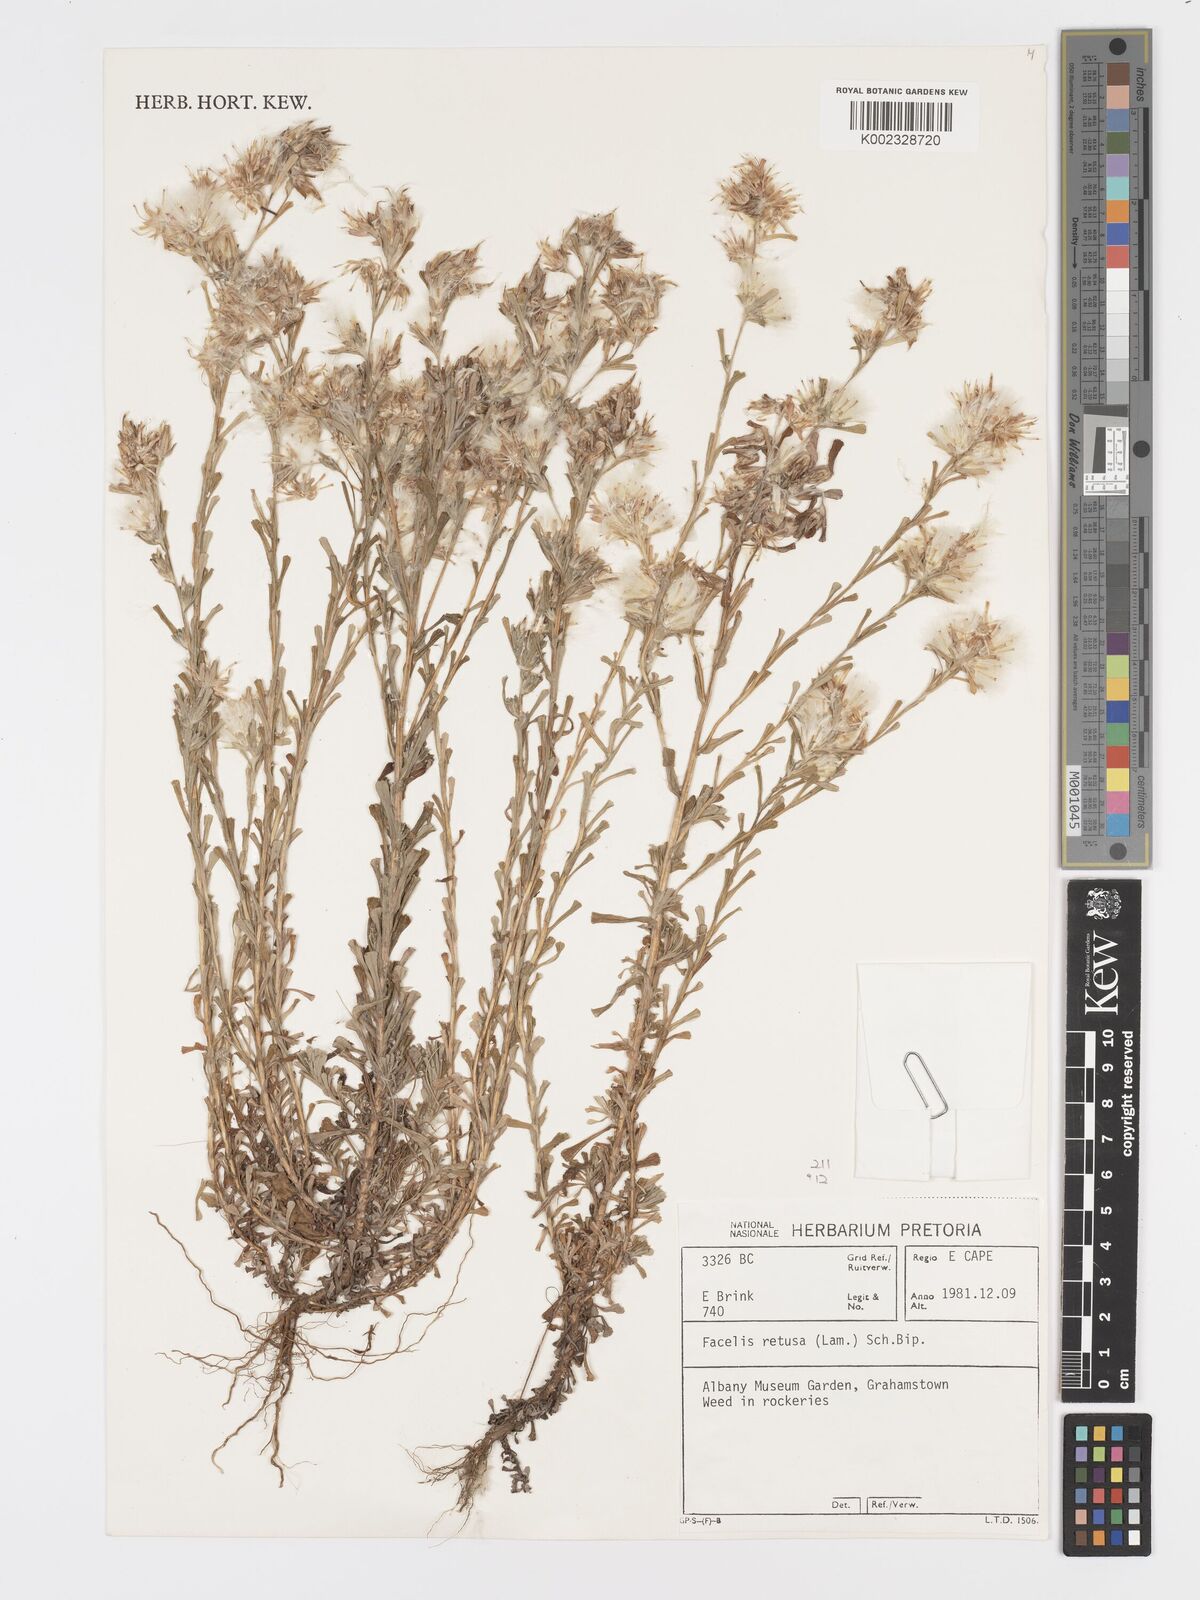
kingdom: Plantae
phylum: Tracheophyta
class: Magnoliopsida
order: Asterales
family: Asteraceae
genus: Facelis
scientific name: Facelis retusa
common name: Annual trampweed
